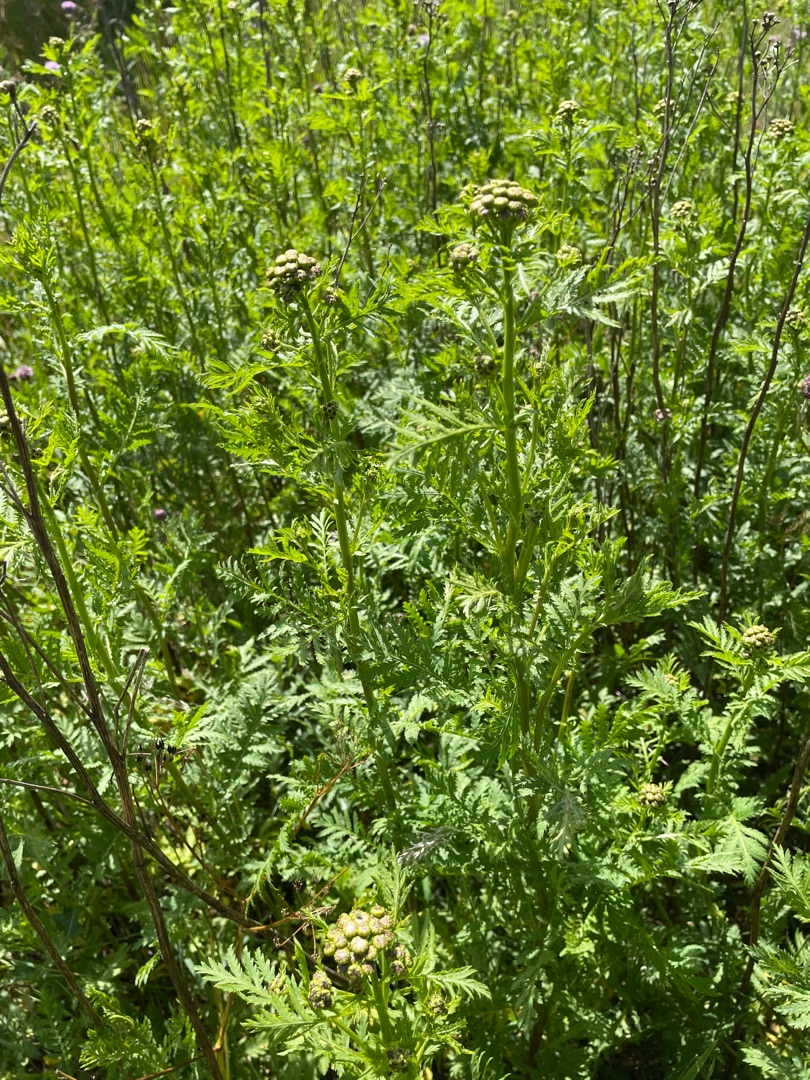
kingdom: Plantae
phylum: Tracheophyta
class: Magnoliopsida
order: Asterales
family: Asteraceae
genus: Tanacetum
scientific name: Tanacetum vulgare
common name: Rejnfan
